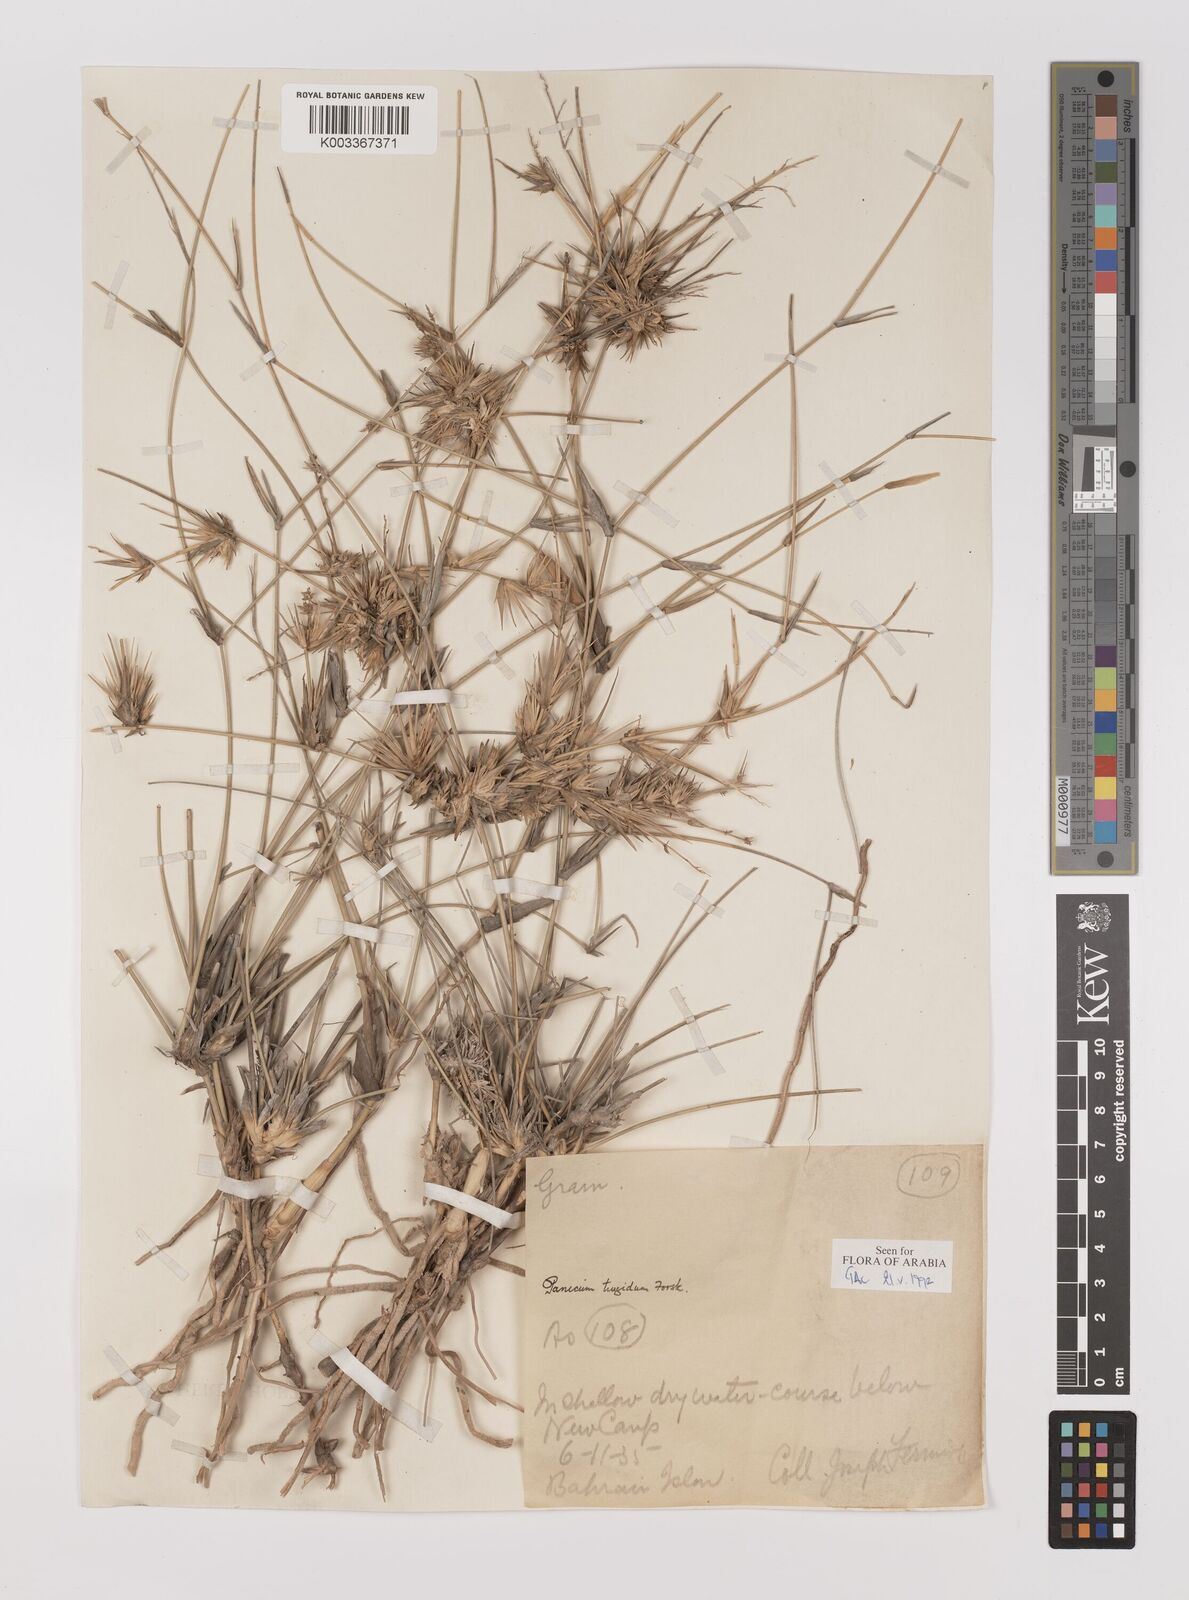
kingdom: Plantae
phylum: Tracheophyta
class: Liliopsida
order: Poales
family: Poaceae
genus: Panicum
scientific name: Panicum turgidum
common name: Desert grass
